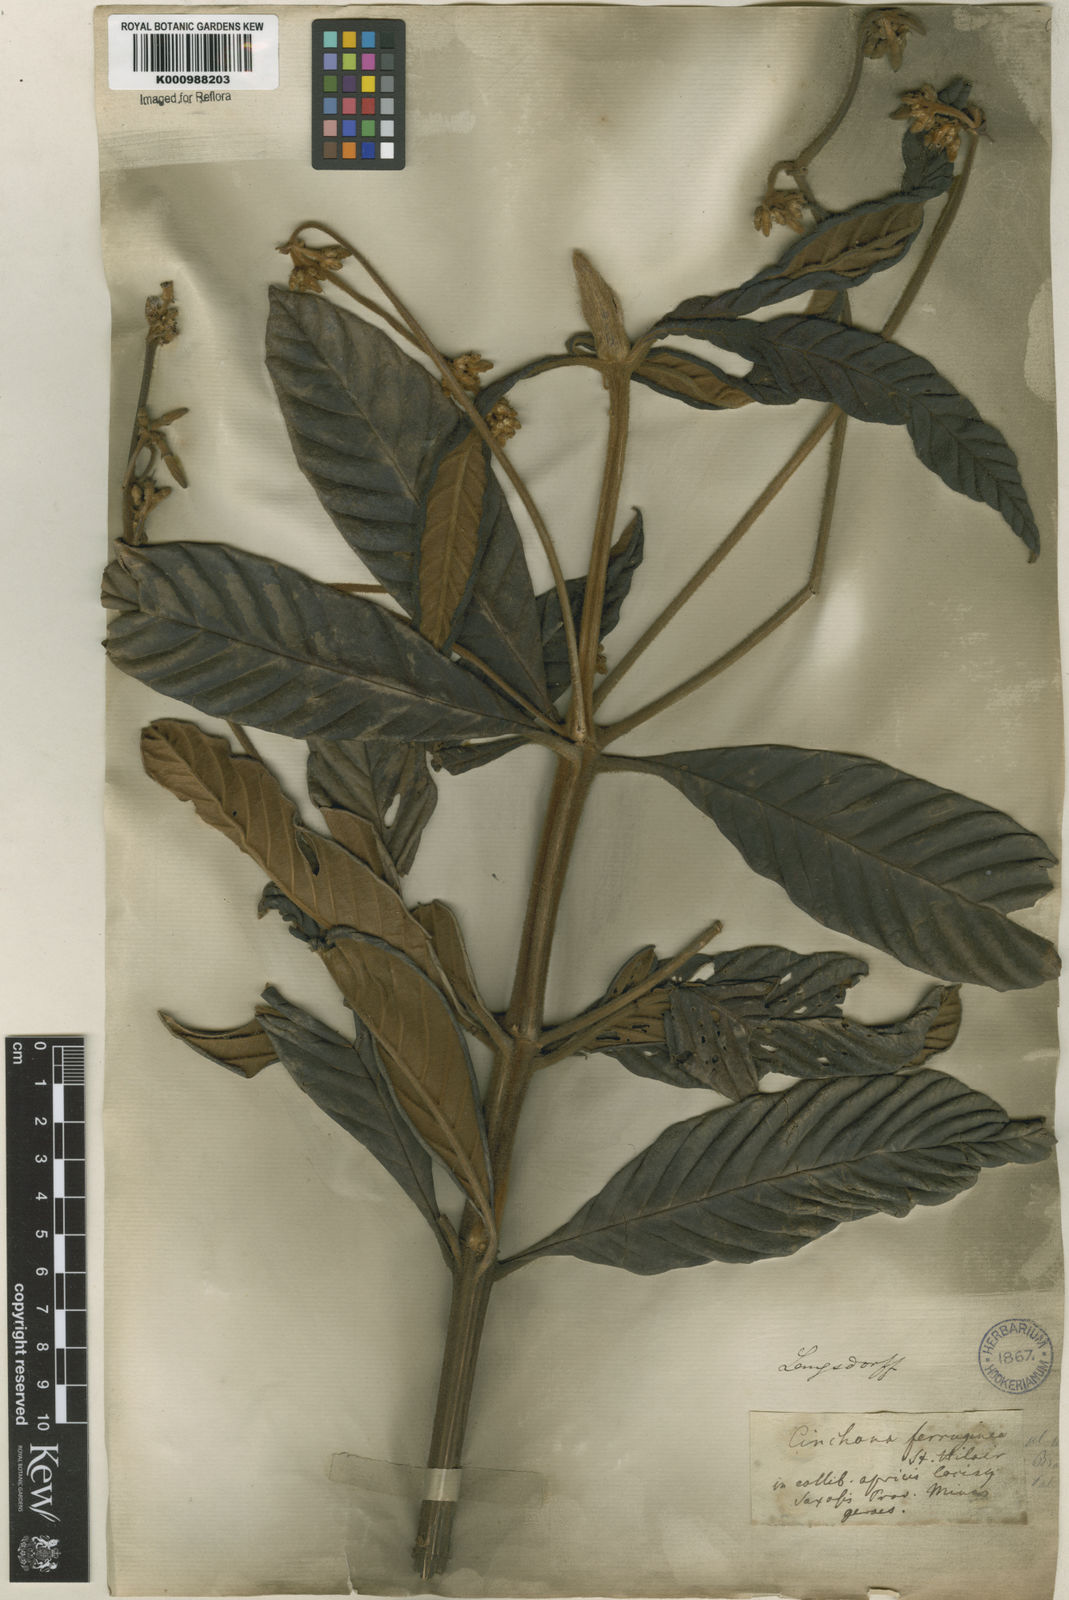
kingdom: Plantae
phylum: Tracheophyta
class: Magnoliopsida
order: Gentianales
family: Rubiaceae
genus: Remijia
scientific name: Remijia ferruginea
